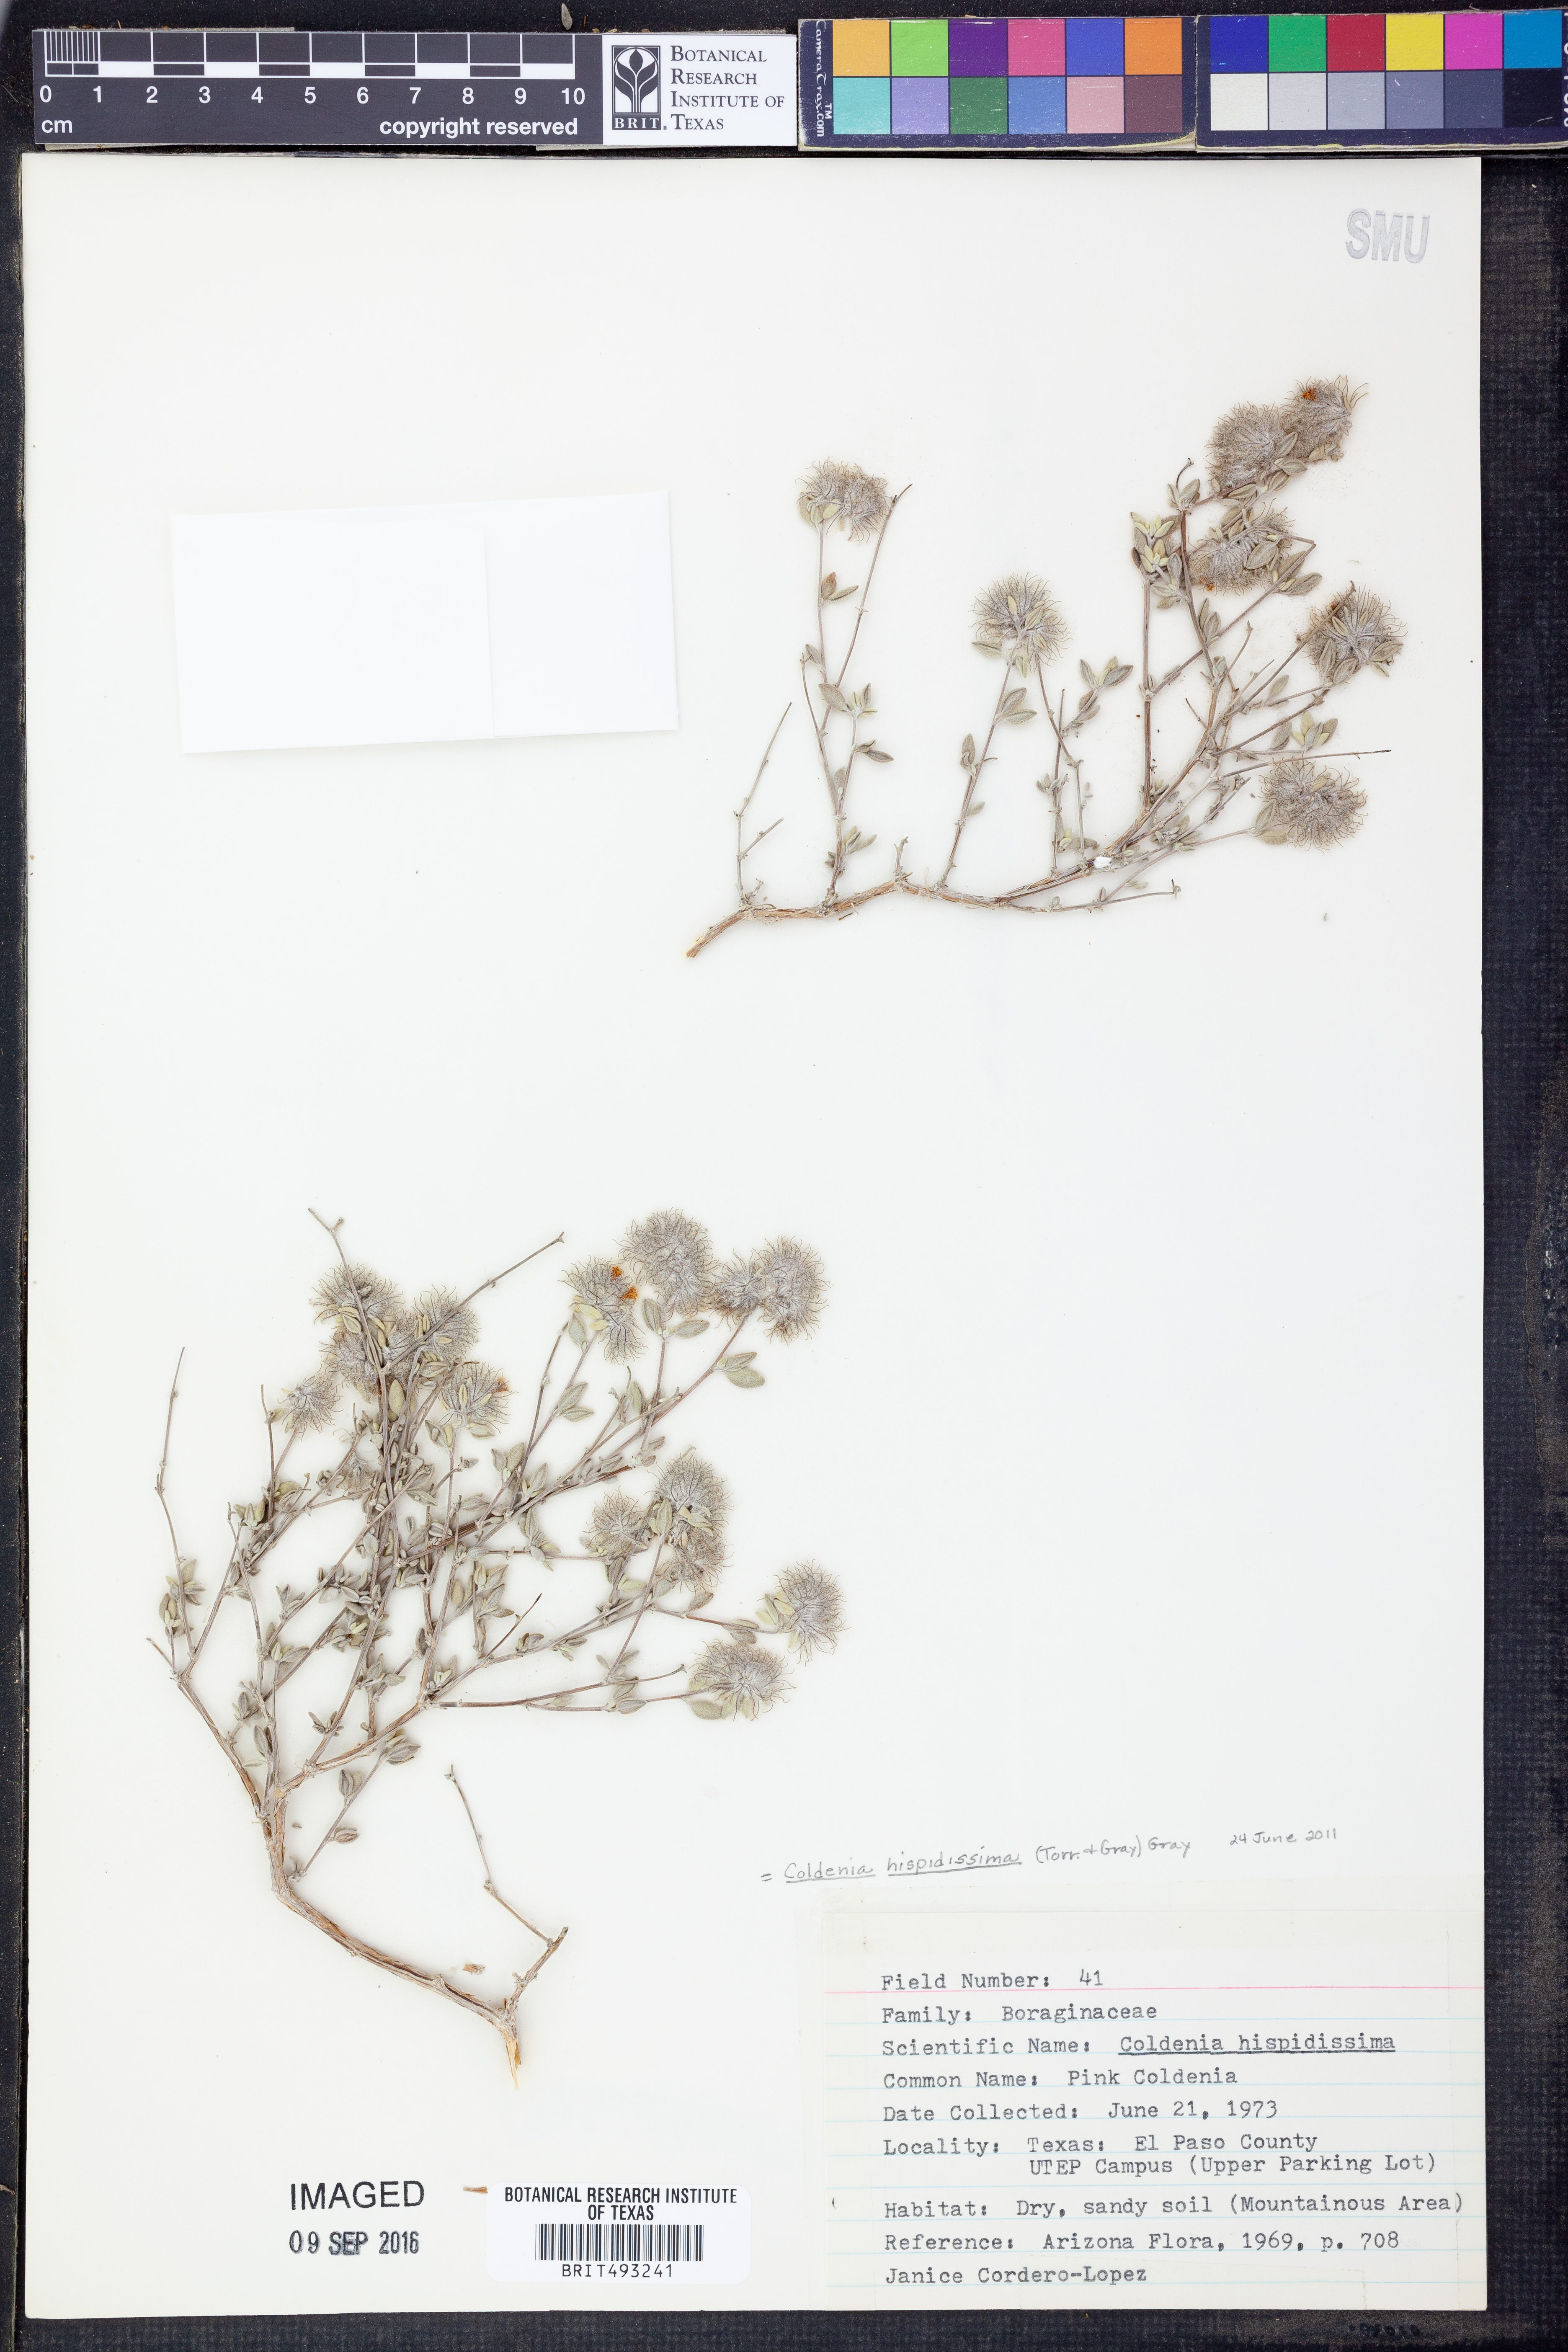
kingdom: Plantae
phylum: Tracheophyta
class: Magnoliopsida
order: Boraginales
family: Ehretiaceae
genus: Tiquilia
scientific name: Tiquilia hispidissima
